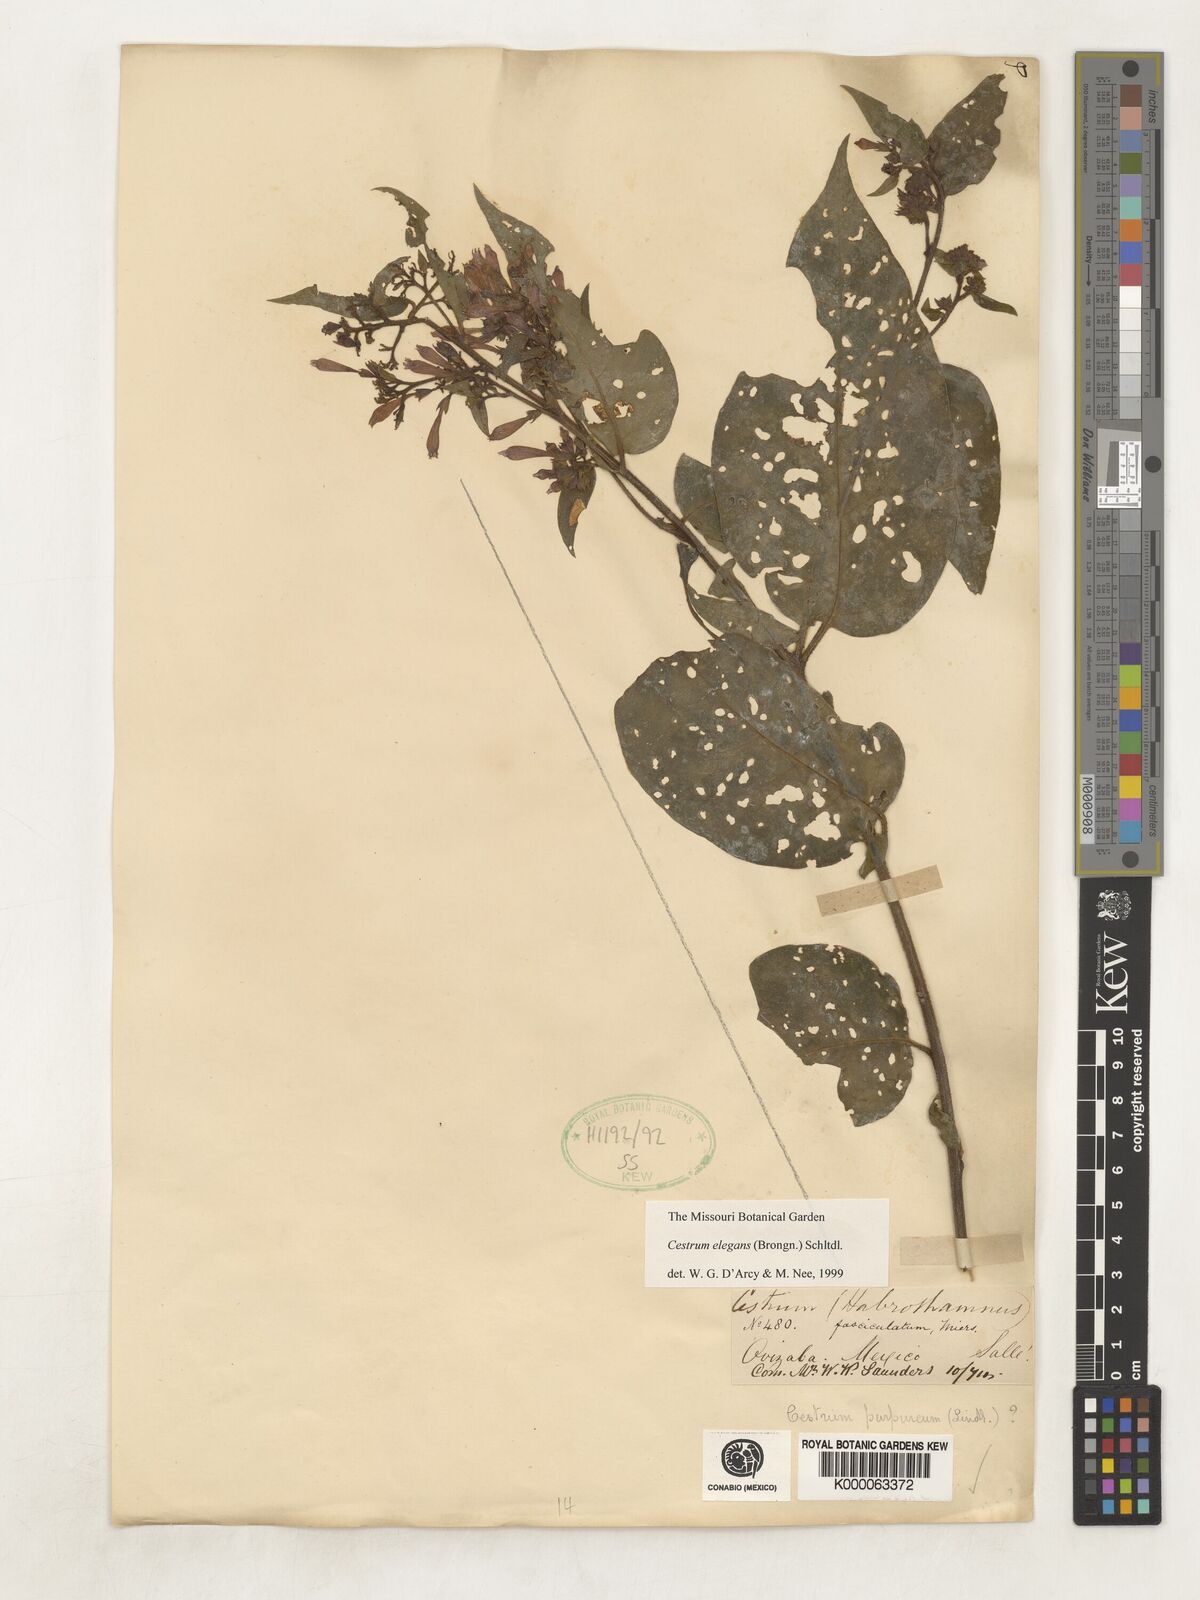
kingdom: Plantae
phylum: Tracheophyta
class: Magnoliopsida
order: Solanales
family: Solanaceae
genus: Cestrum
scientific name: Cestrum elegans
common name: Crimson cestrum
